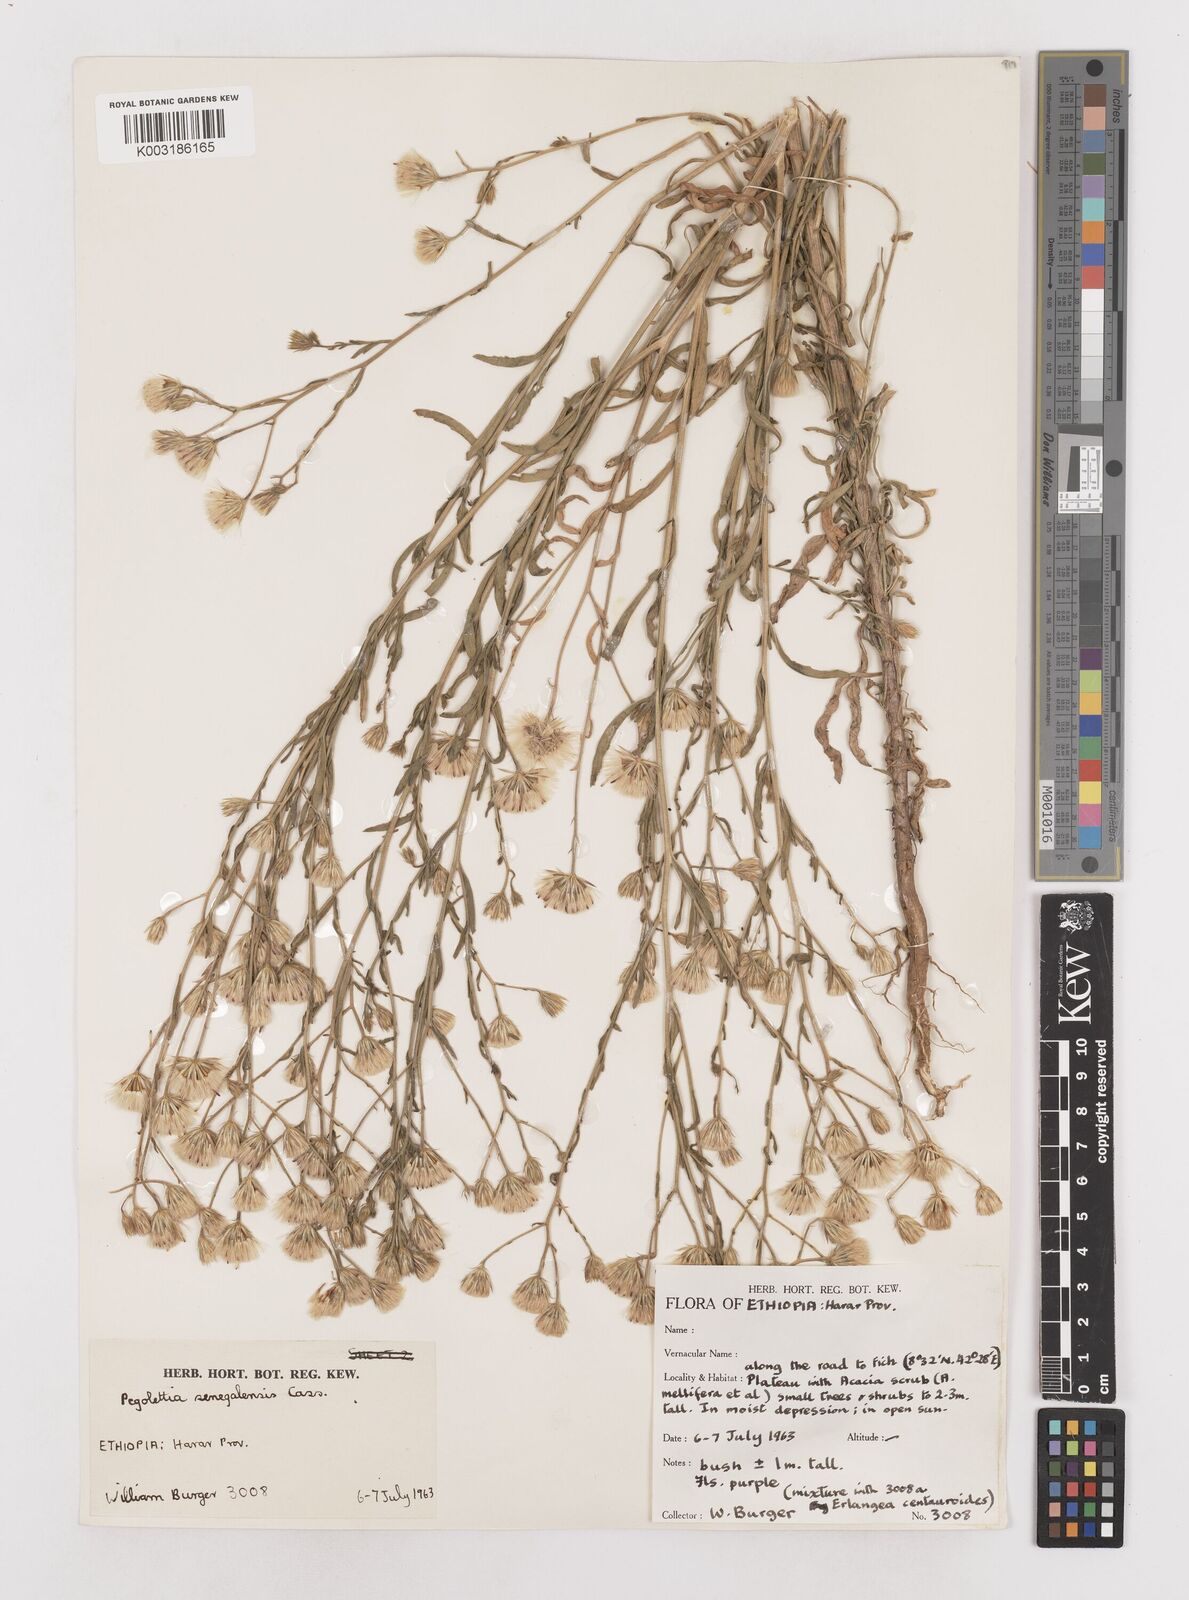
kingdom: Plantae
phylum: Tracheophyta
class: Magnoliopsida
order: Asterales
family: Asteraceae
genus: Pegolettia
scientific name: Pegolettia senegalensis
